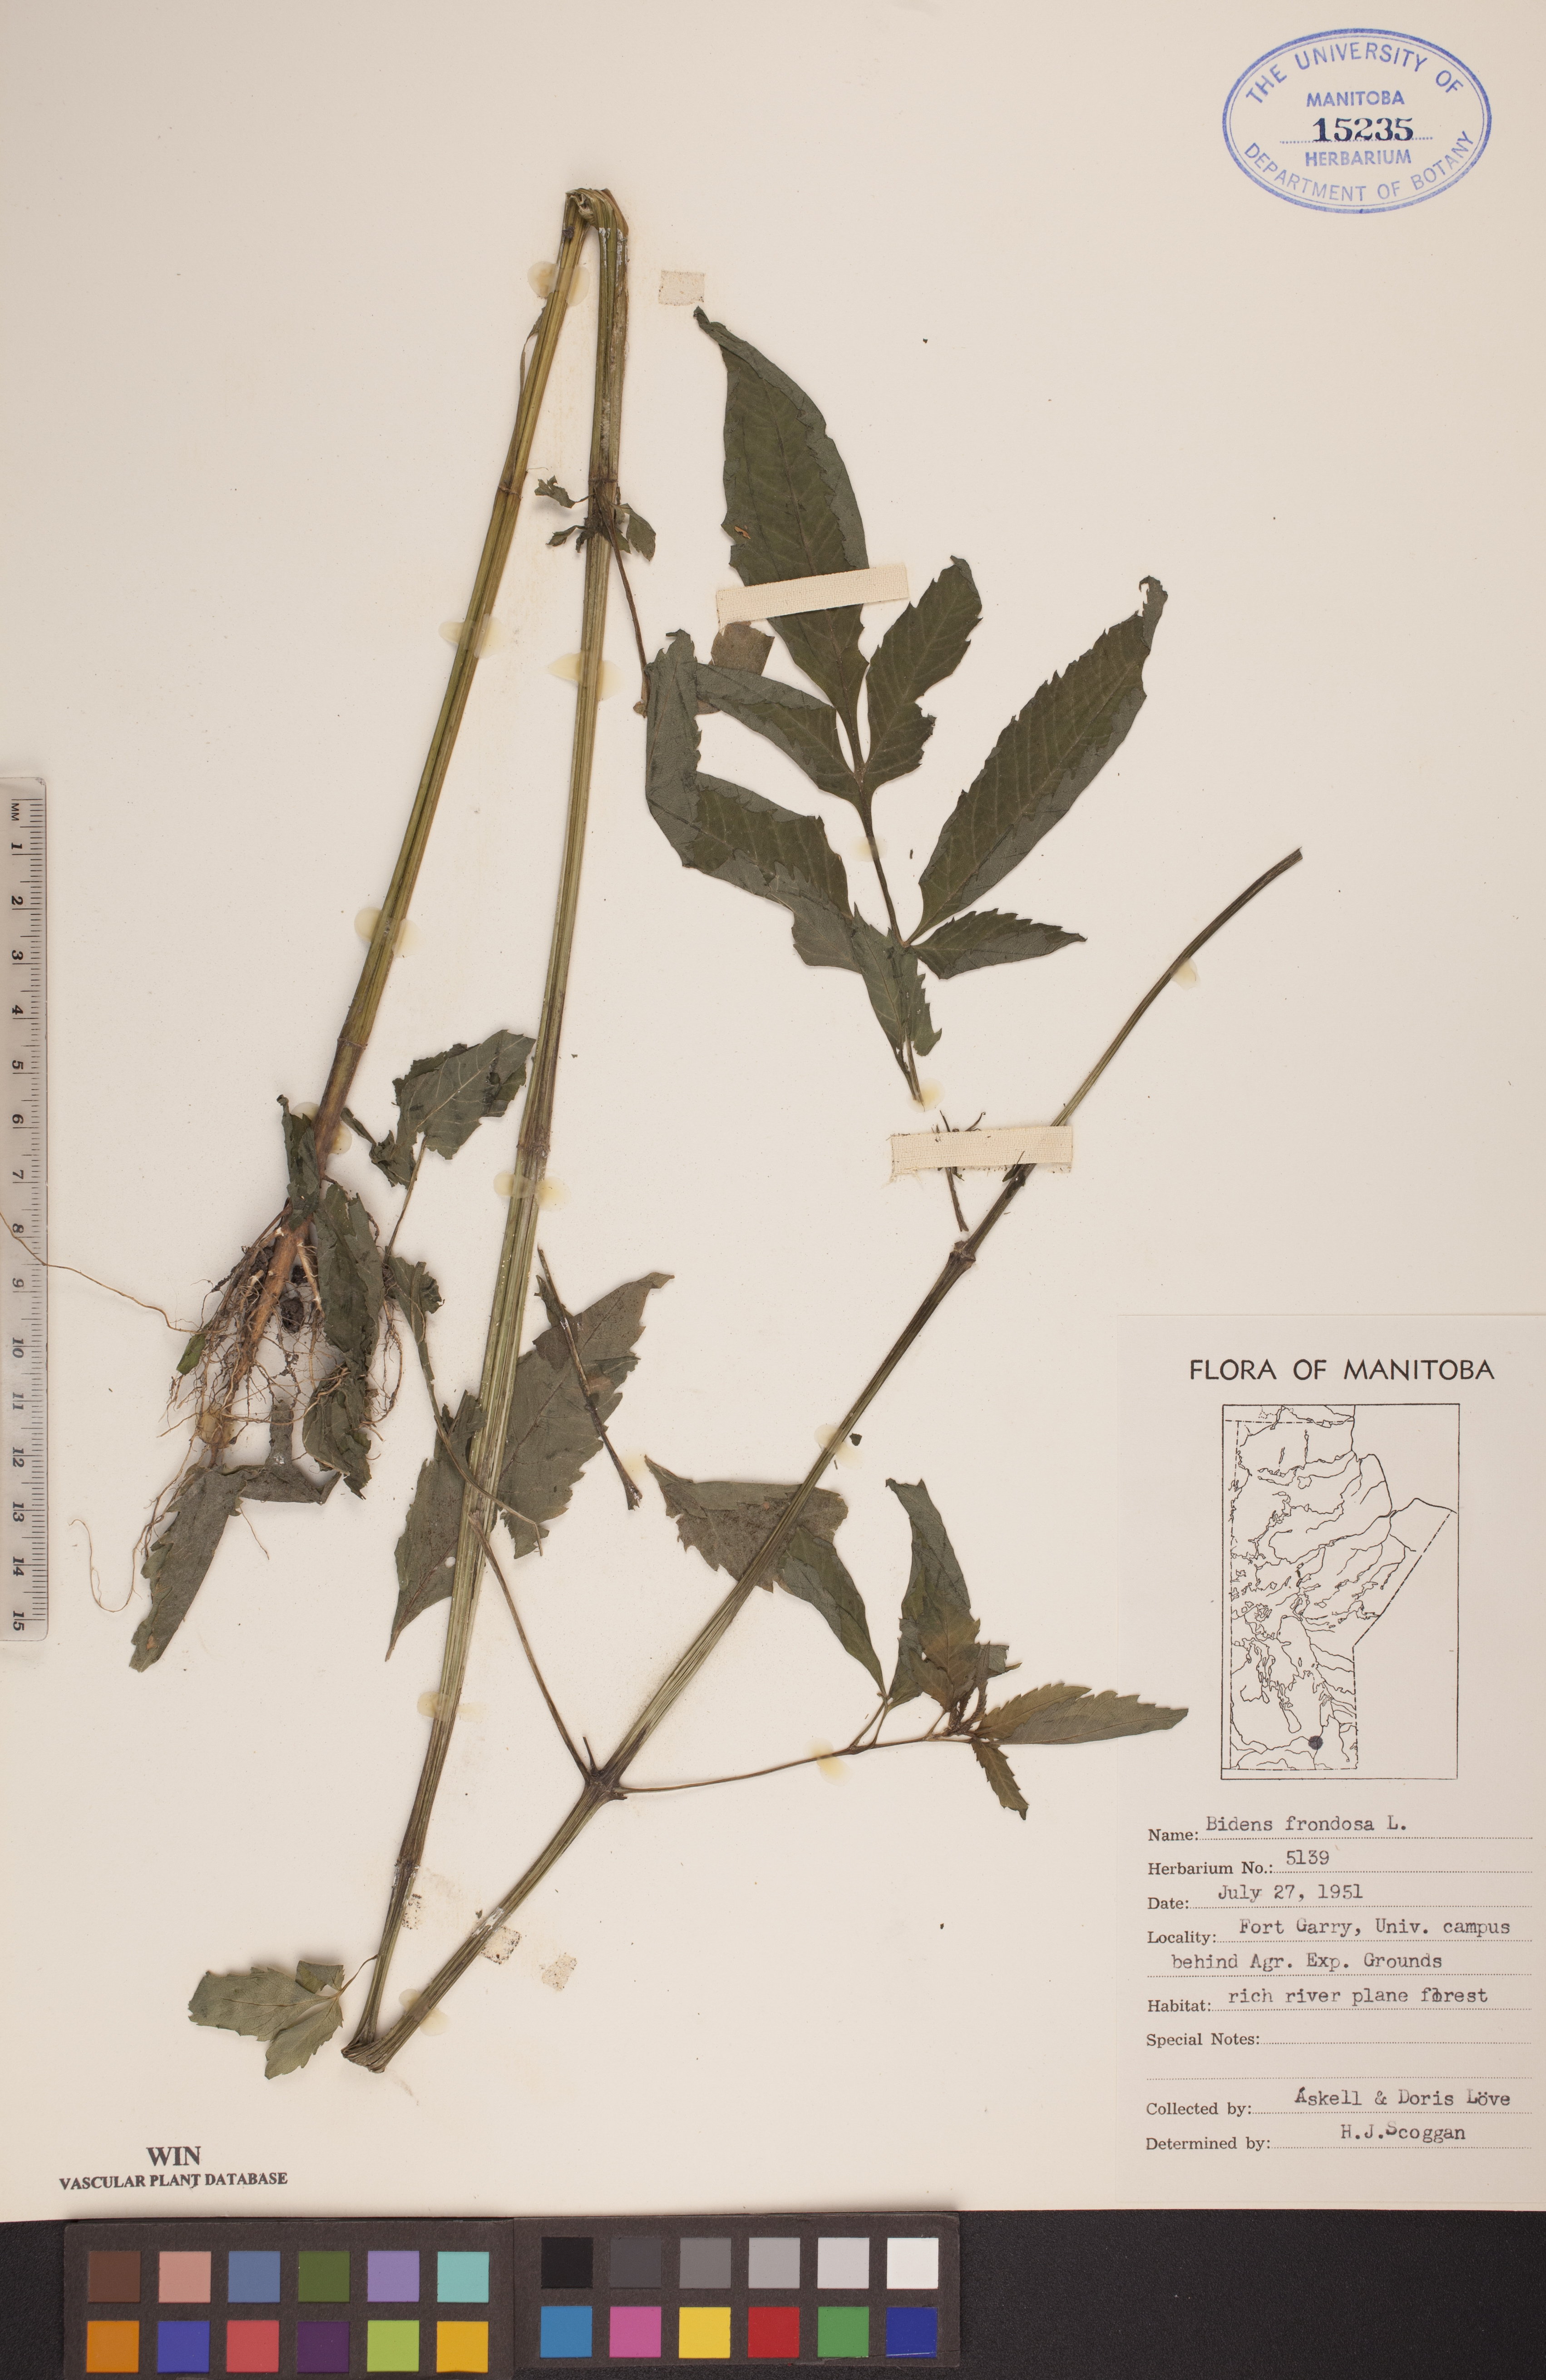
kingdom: Plantae
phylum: Tracheophyta
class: Magnoliopsida
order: Asterales
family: Asteraceae
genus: Bidens
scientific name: Bidens frondosa
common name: Beggarticks
